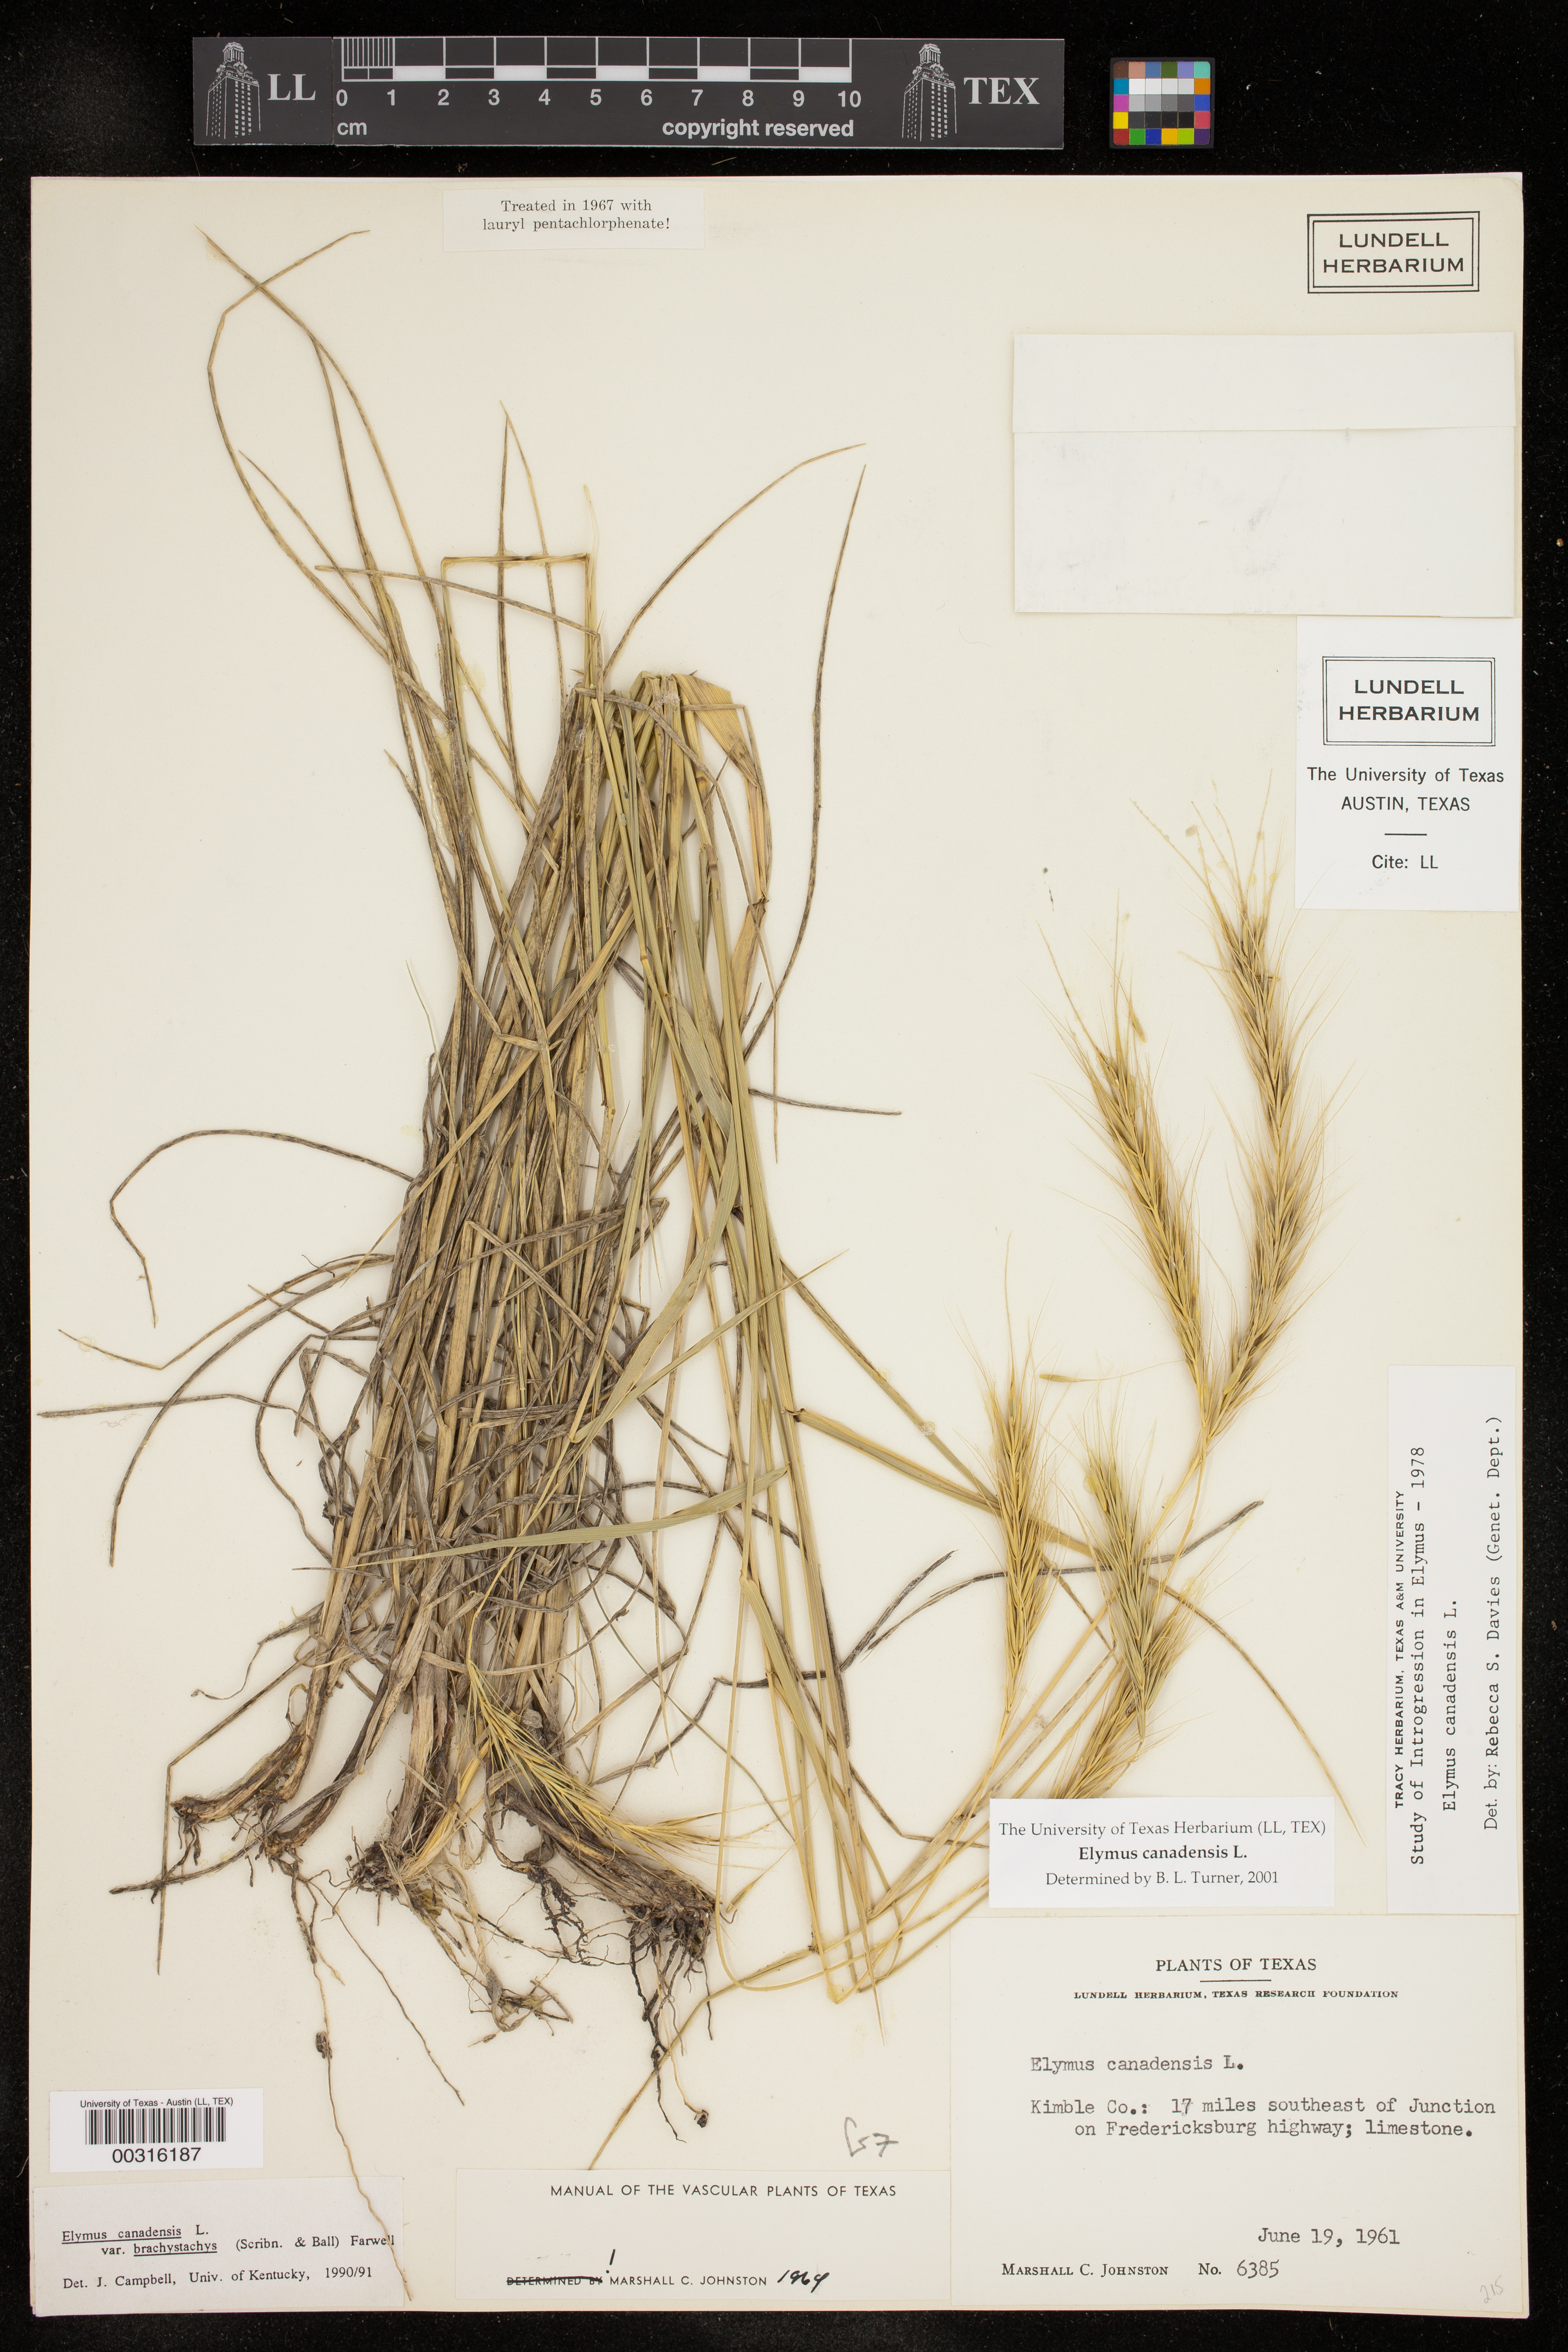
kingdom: Plantae
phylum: Tracheophyta
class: Liliopsida
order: Poales
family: Poaceae
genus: Elymus
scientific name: Elymus canadensis
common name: Canada wild rye
